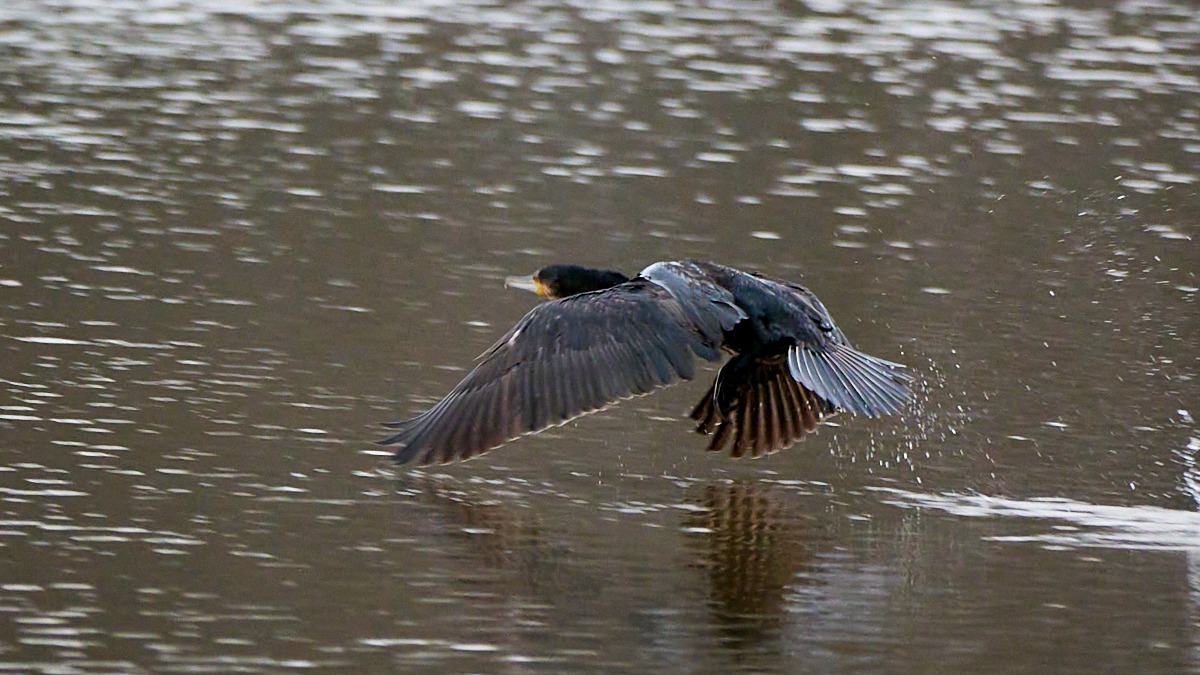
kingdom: Animalia
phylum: Chordata
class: Aves
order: Suliformes
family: Phalacrocoracidae
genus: Phalacrocorax
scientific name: Phalacrocorax carbo
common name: Skarv
